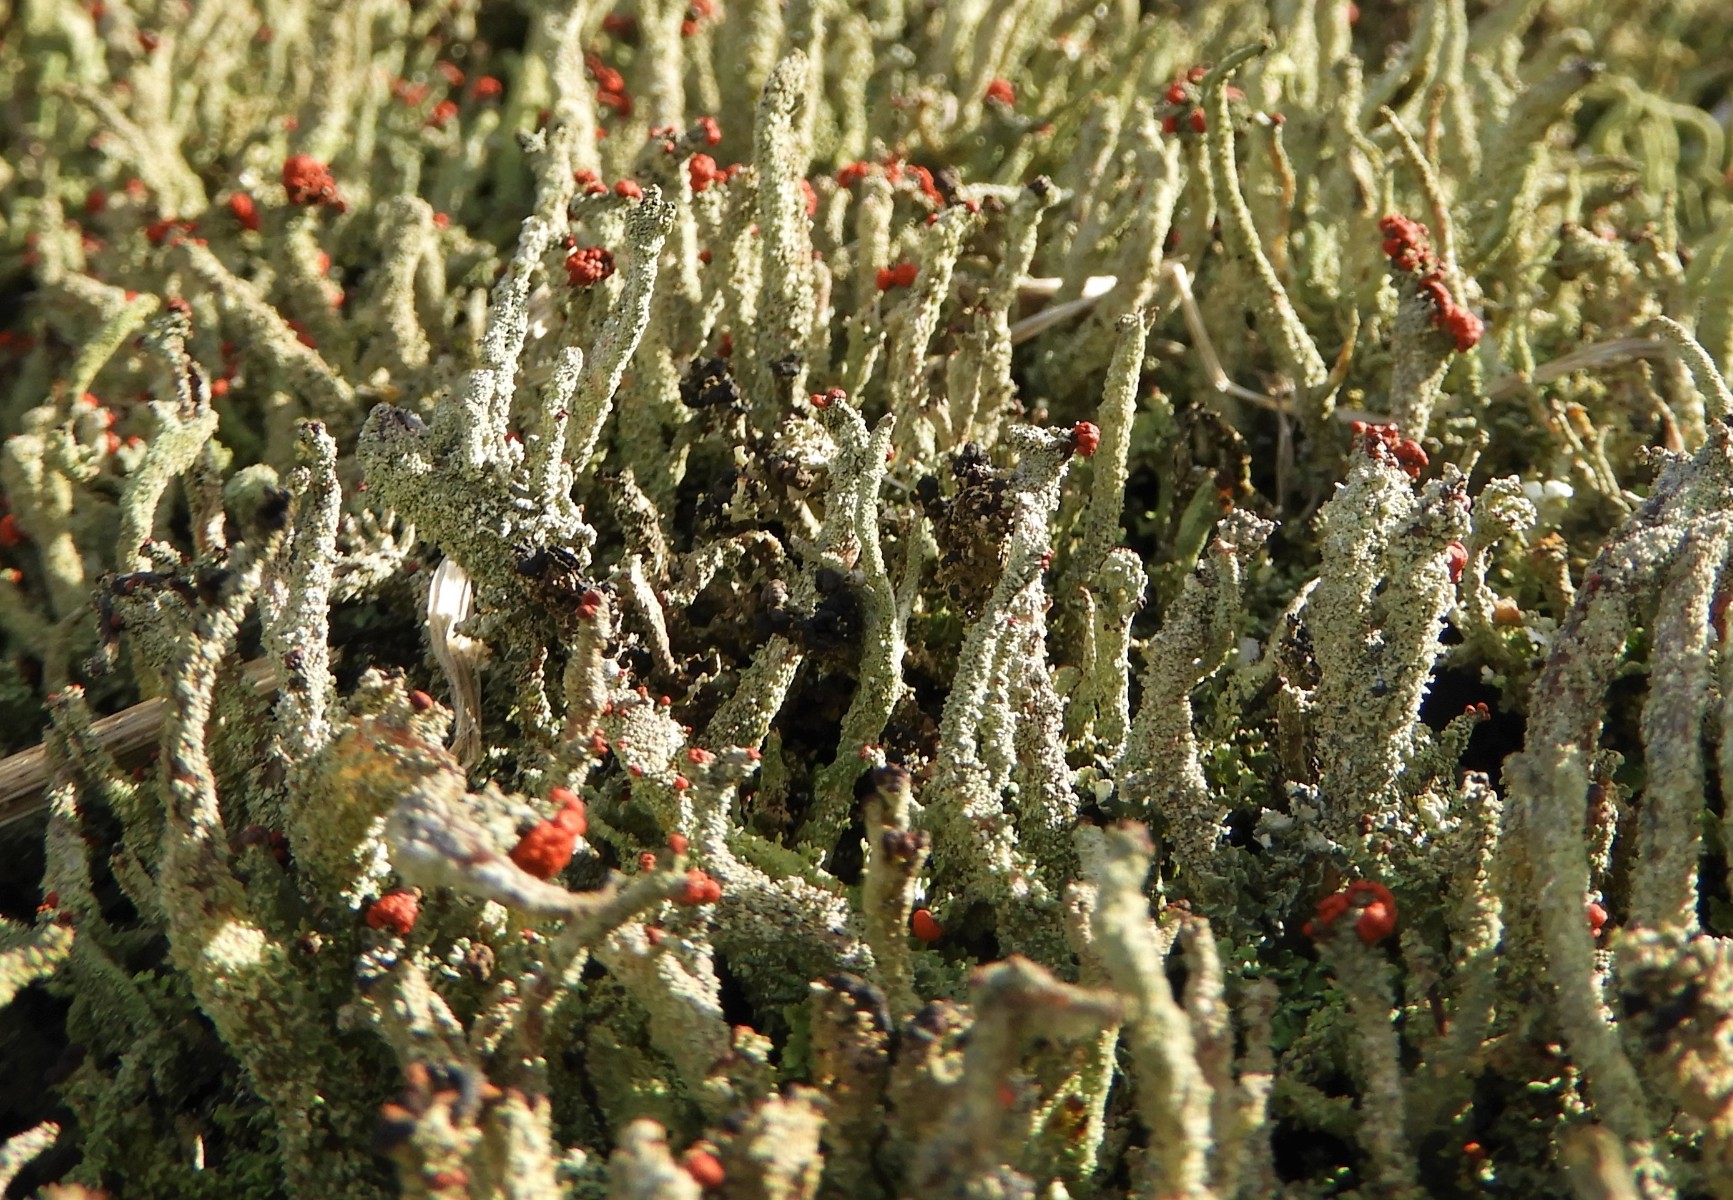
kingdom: Fungi
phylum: Ascomycota
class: Lecanoromycetes
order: Lecanorales
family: Cladoniaceae
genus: Cladonia
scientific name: Cladonia floerkeana
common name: lakrød bægerlav
